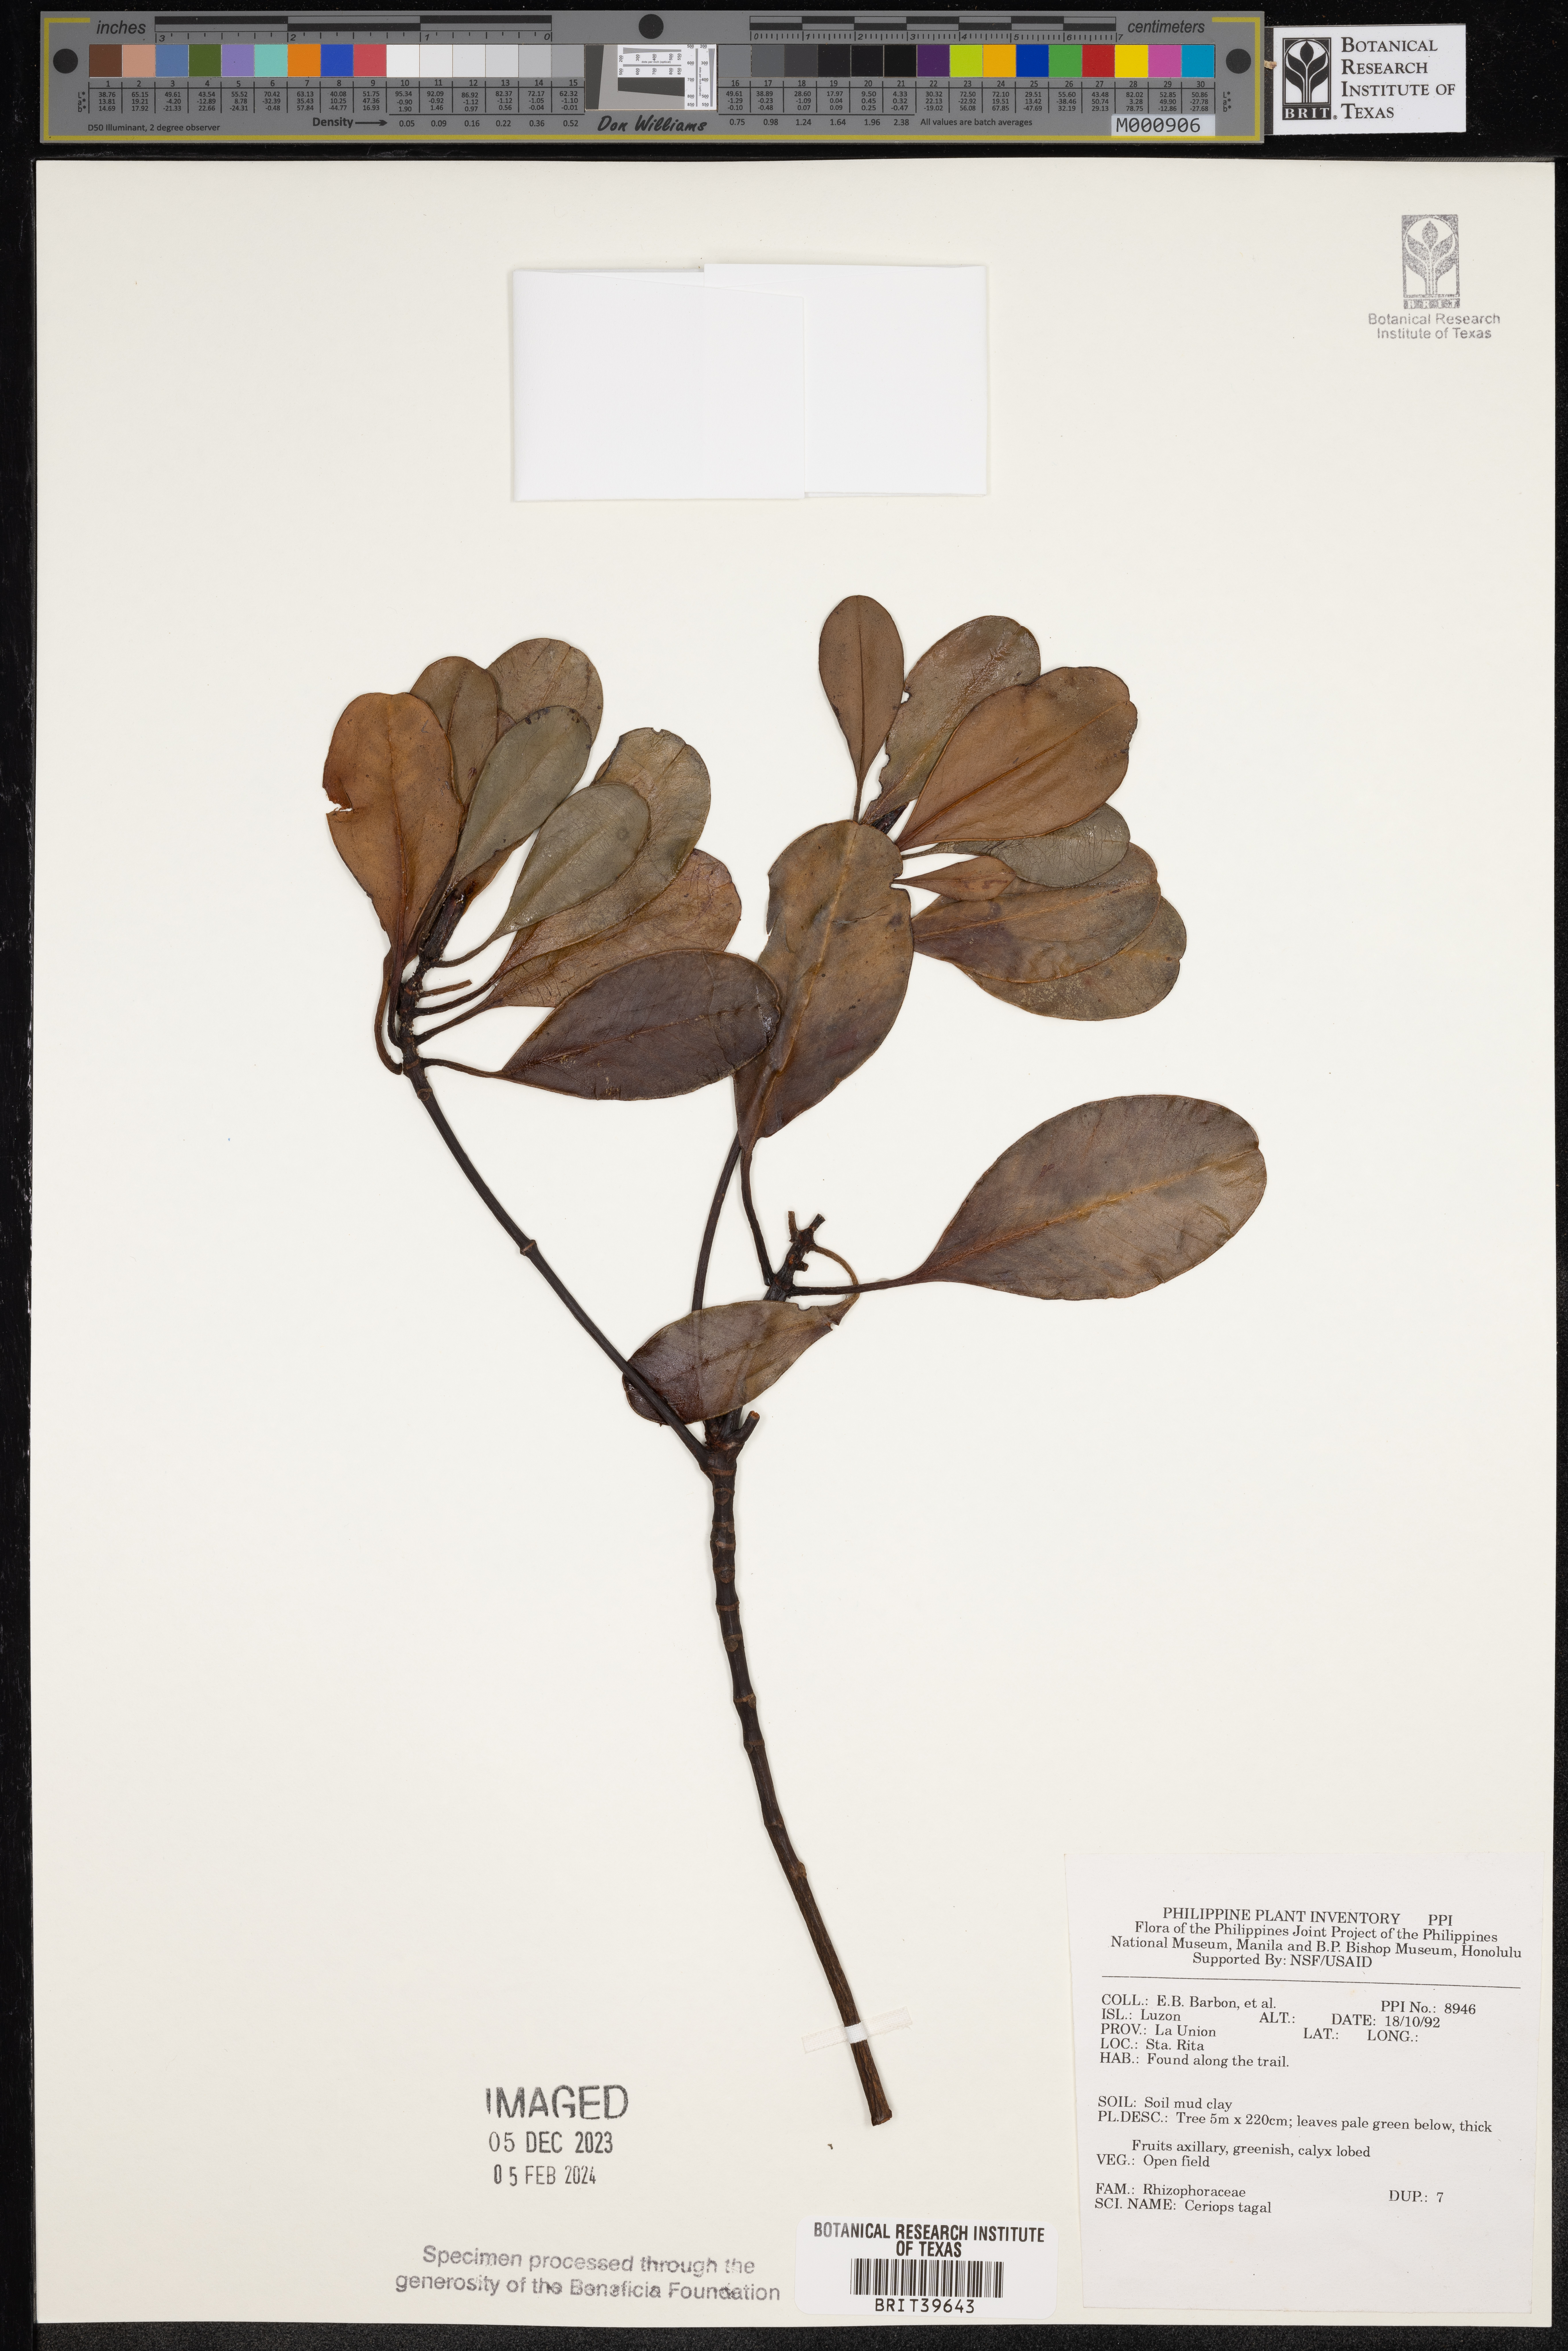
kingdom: Plantae
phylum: Tracheophyta
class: Magnoliopsida
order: Malpighiales
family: Rhizophoraceae
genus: Ceriops
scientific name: Ceriops tagal
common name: Spurred mangrove
